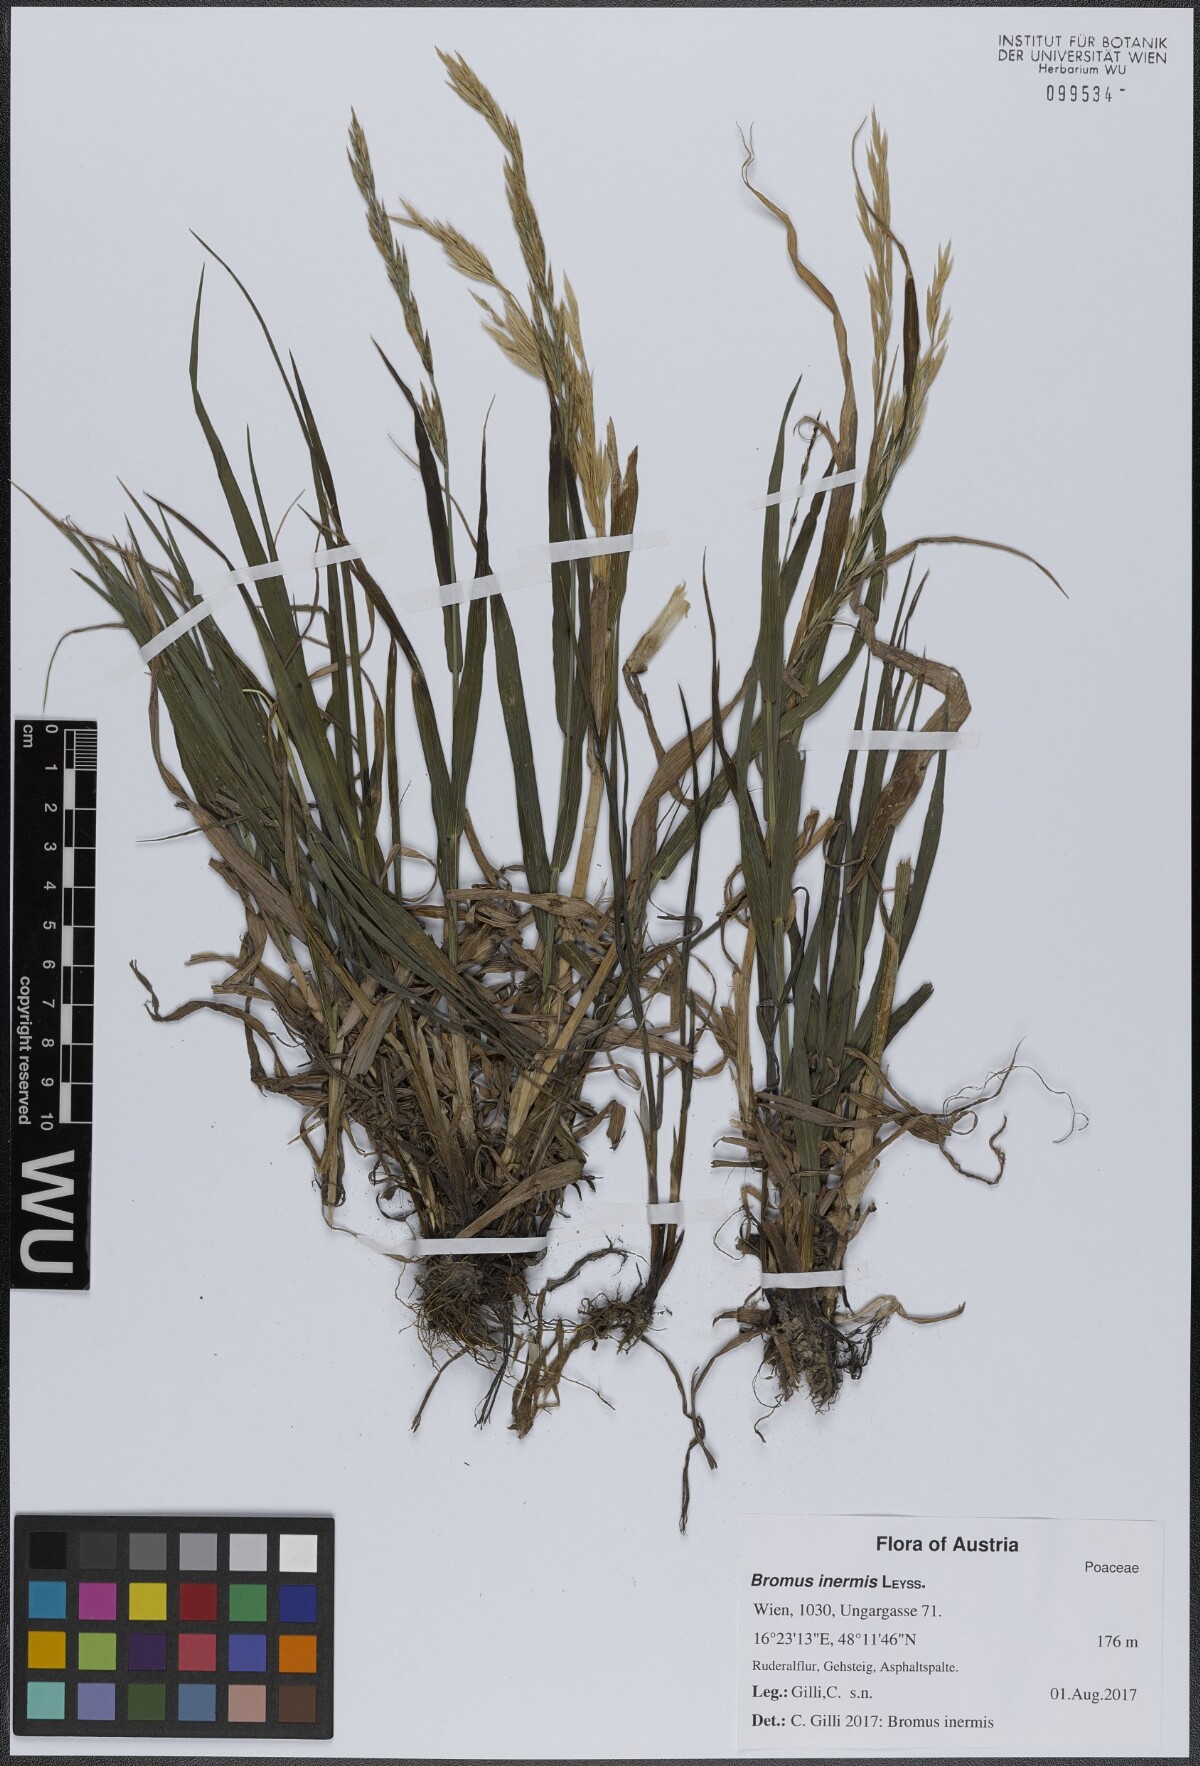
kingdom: Plantae
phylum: Tracheophyta
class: Liliopsida
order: Poales
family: Poaceae
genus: Bromus
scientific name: Bromus inermis
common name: Smooth brome
